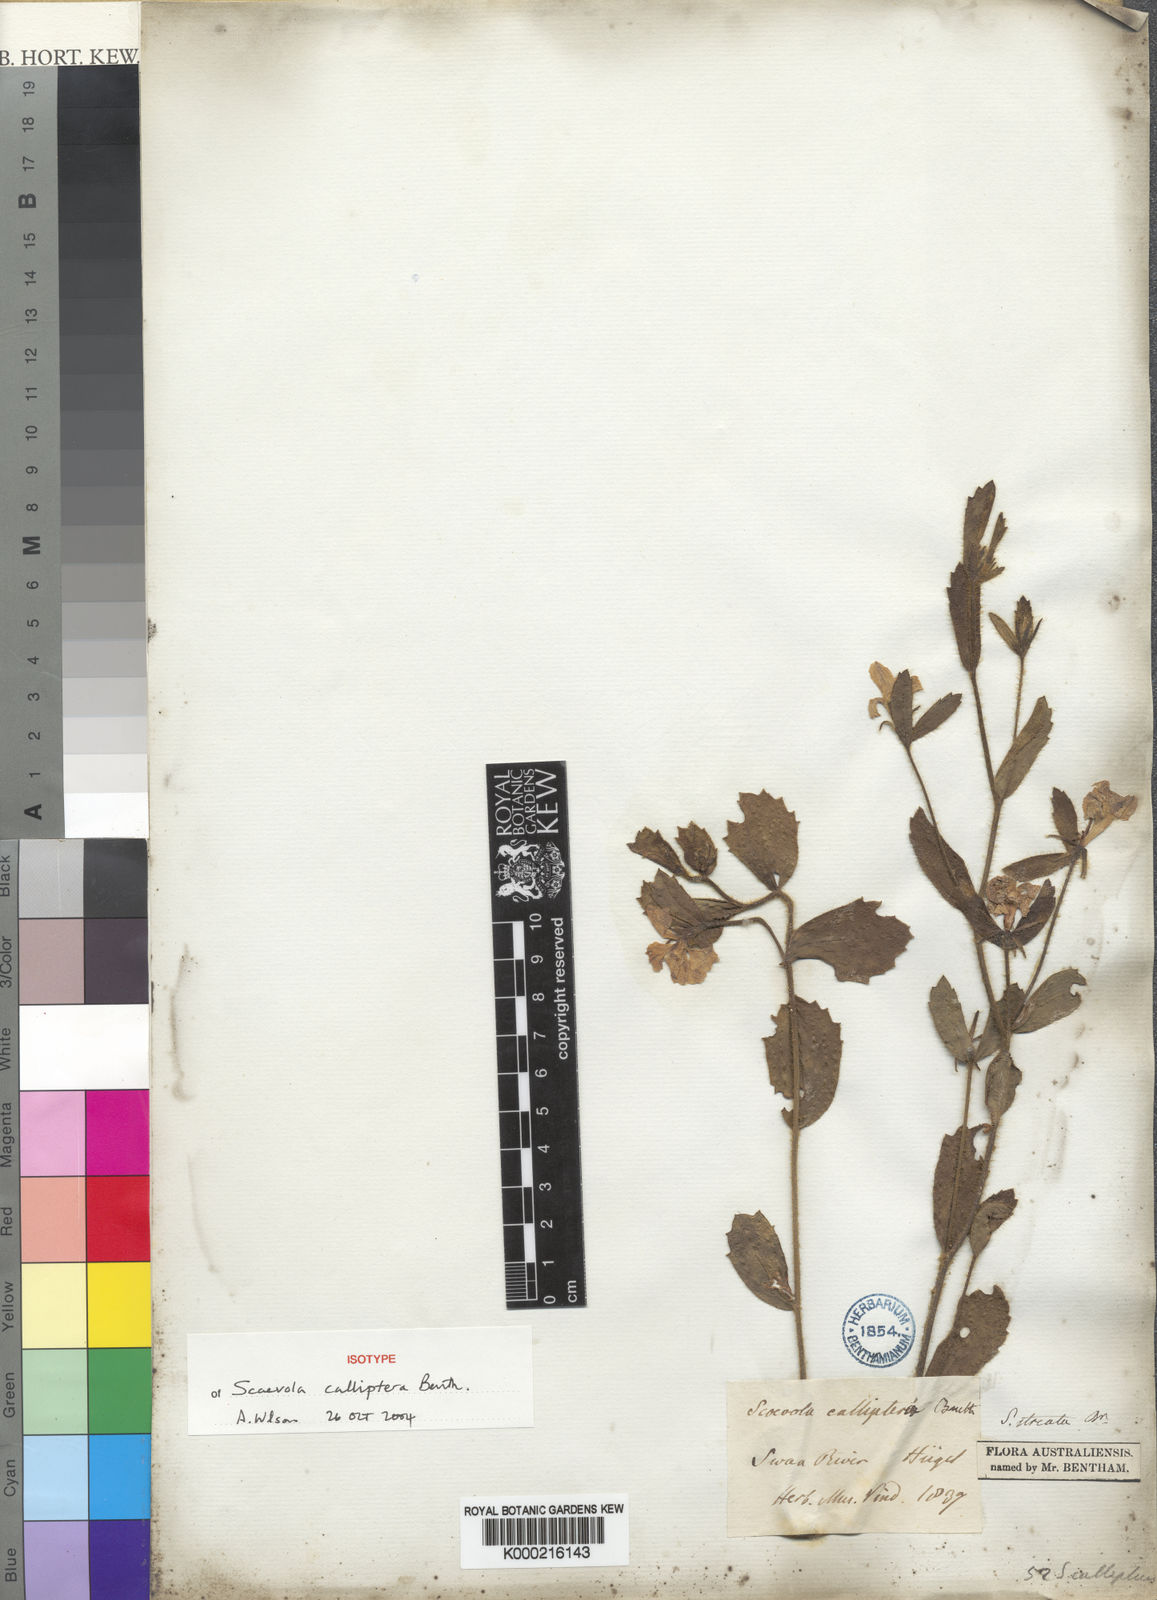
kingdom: Plantae
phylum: Tracheophyta
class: Magnoliopsida
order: Asterales
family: Goodeniaceae
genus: Scaevola
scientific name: Scaevola calliptera
